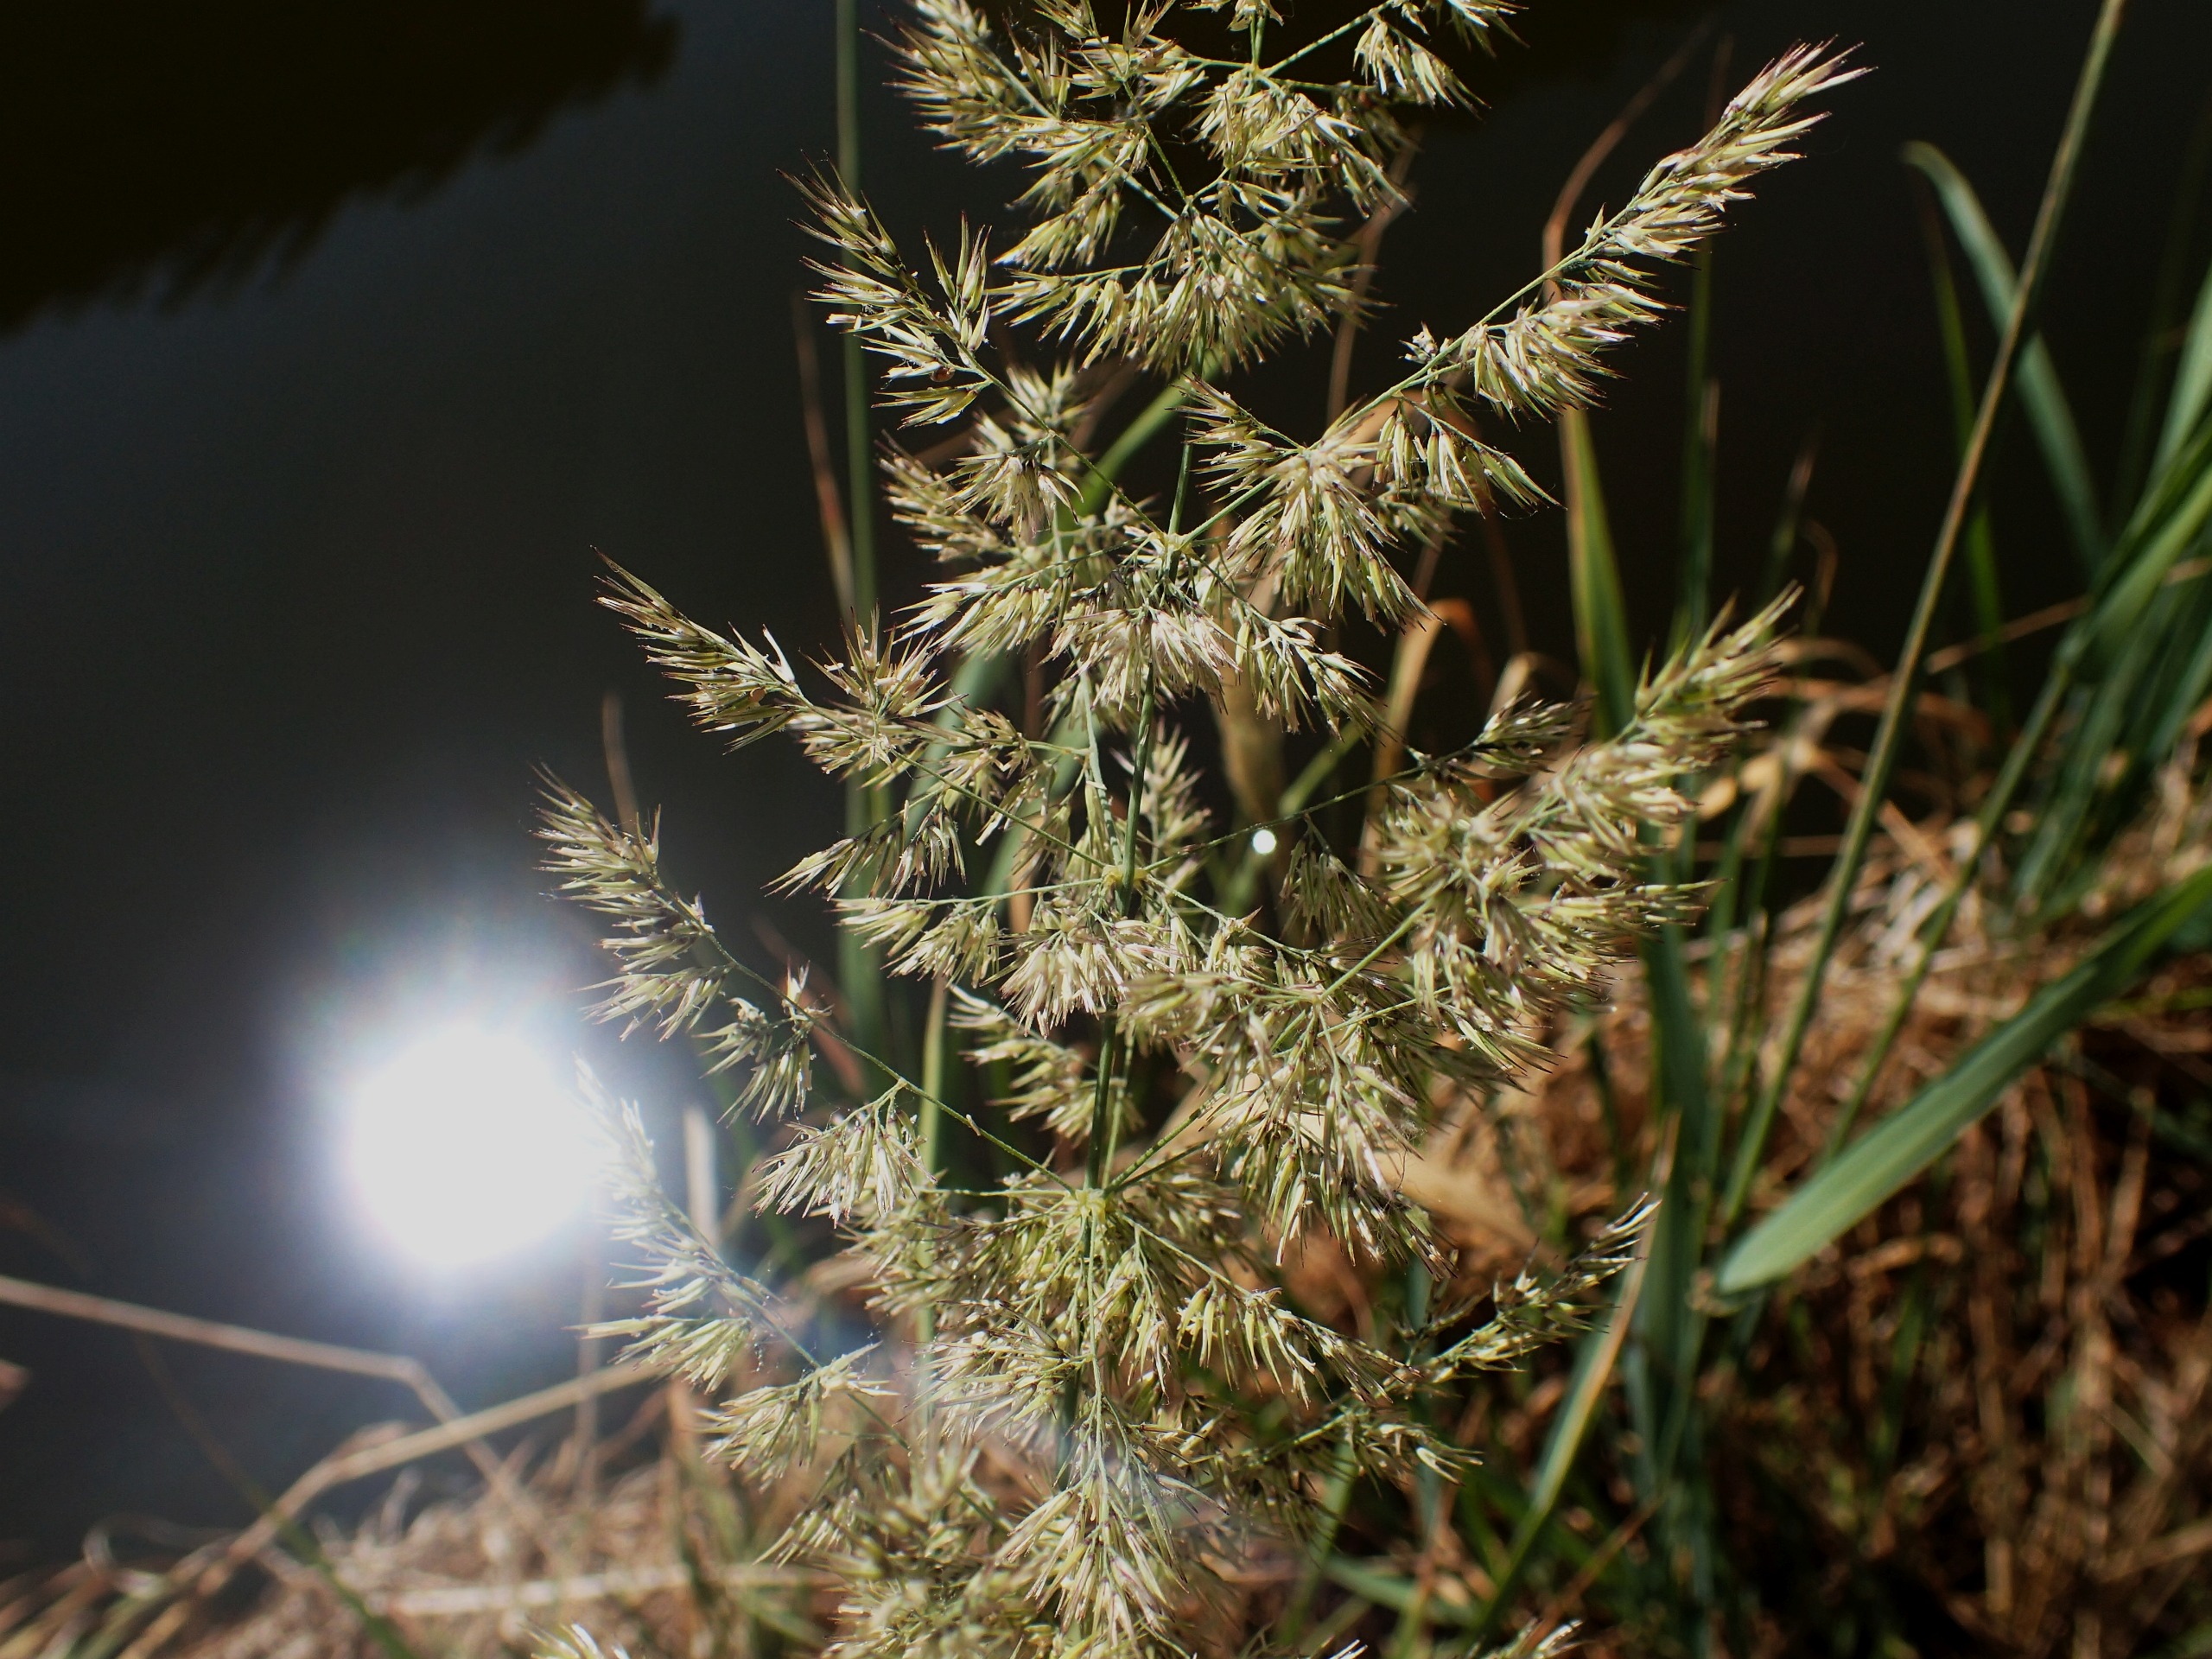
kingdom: Plantae
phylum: Tracheophyta
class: Liliopsida
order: Poales
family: Poaceae
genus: Calamagrostis
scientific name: Calamagrostis epigejos
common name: Bjerg-rørhvene
